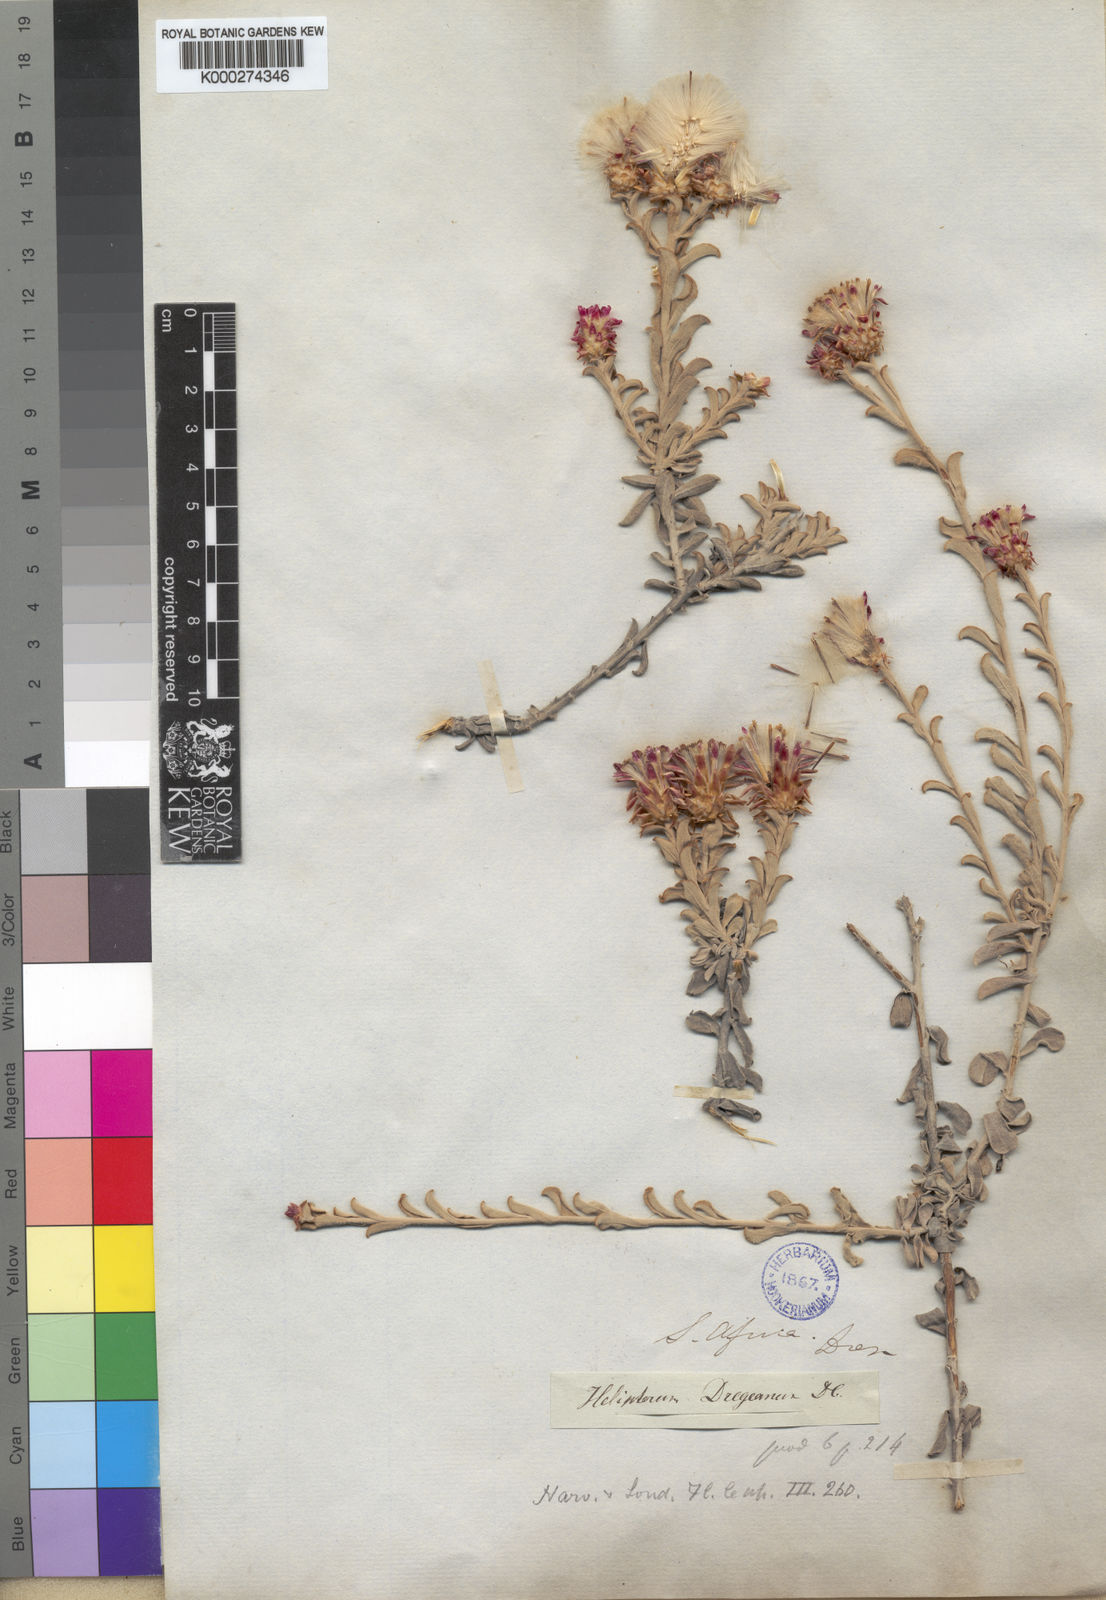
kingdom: Plantae
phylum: Tracheophyta
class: Magnoliopsida
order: Asterales
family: Asteraceae
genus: Syncarpha
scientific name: Syncarpha dregeana
